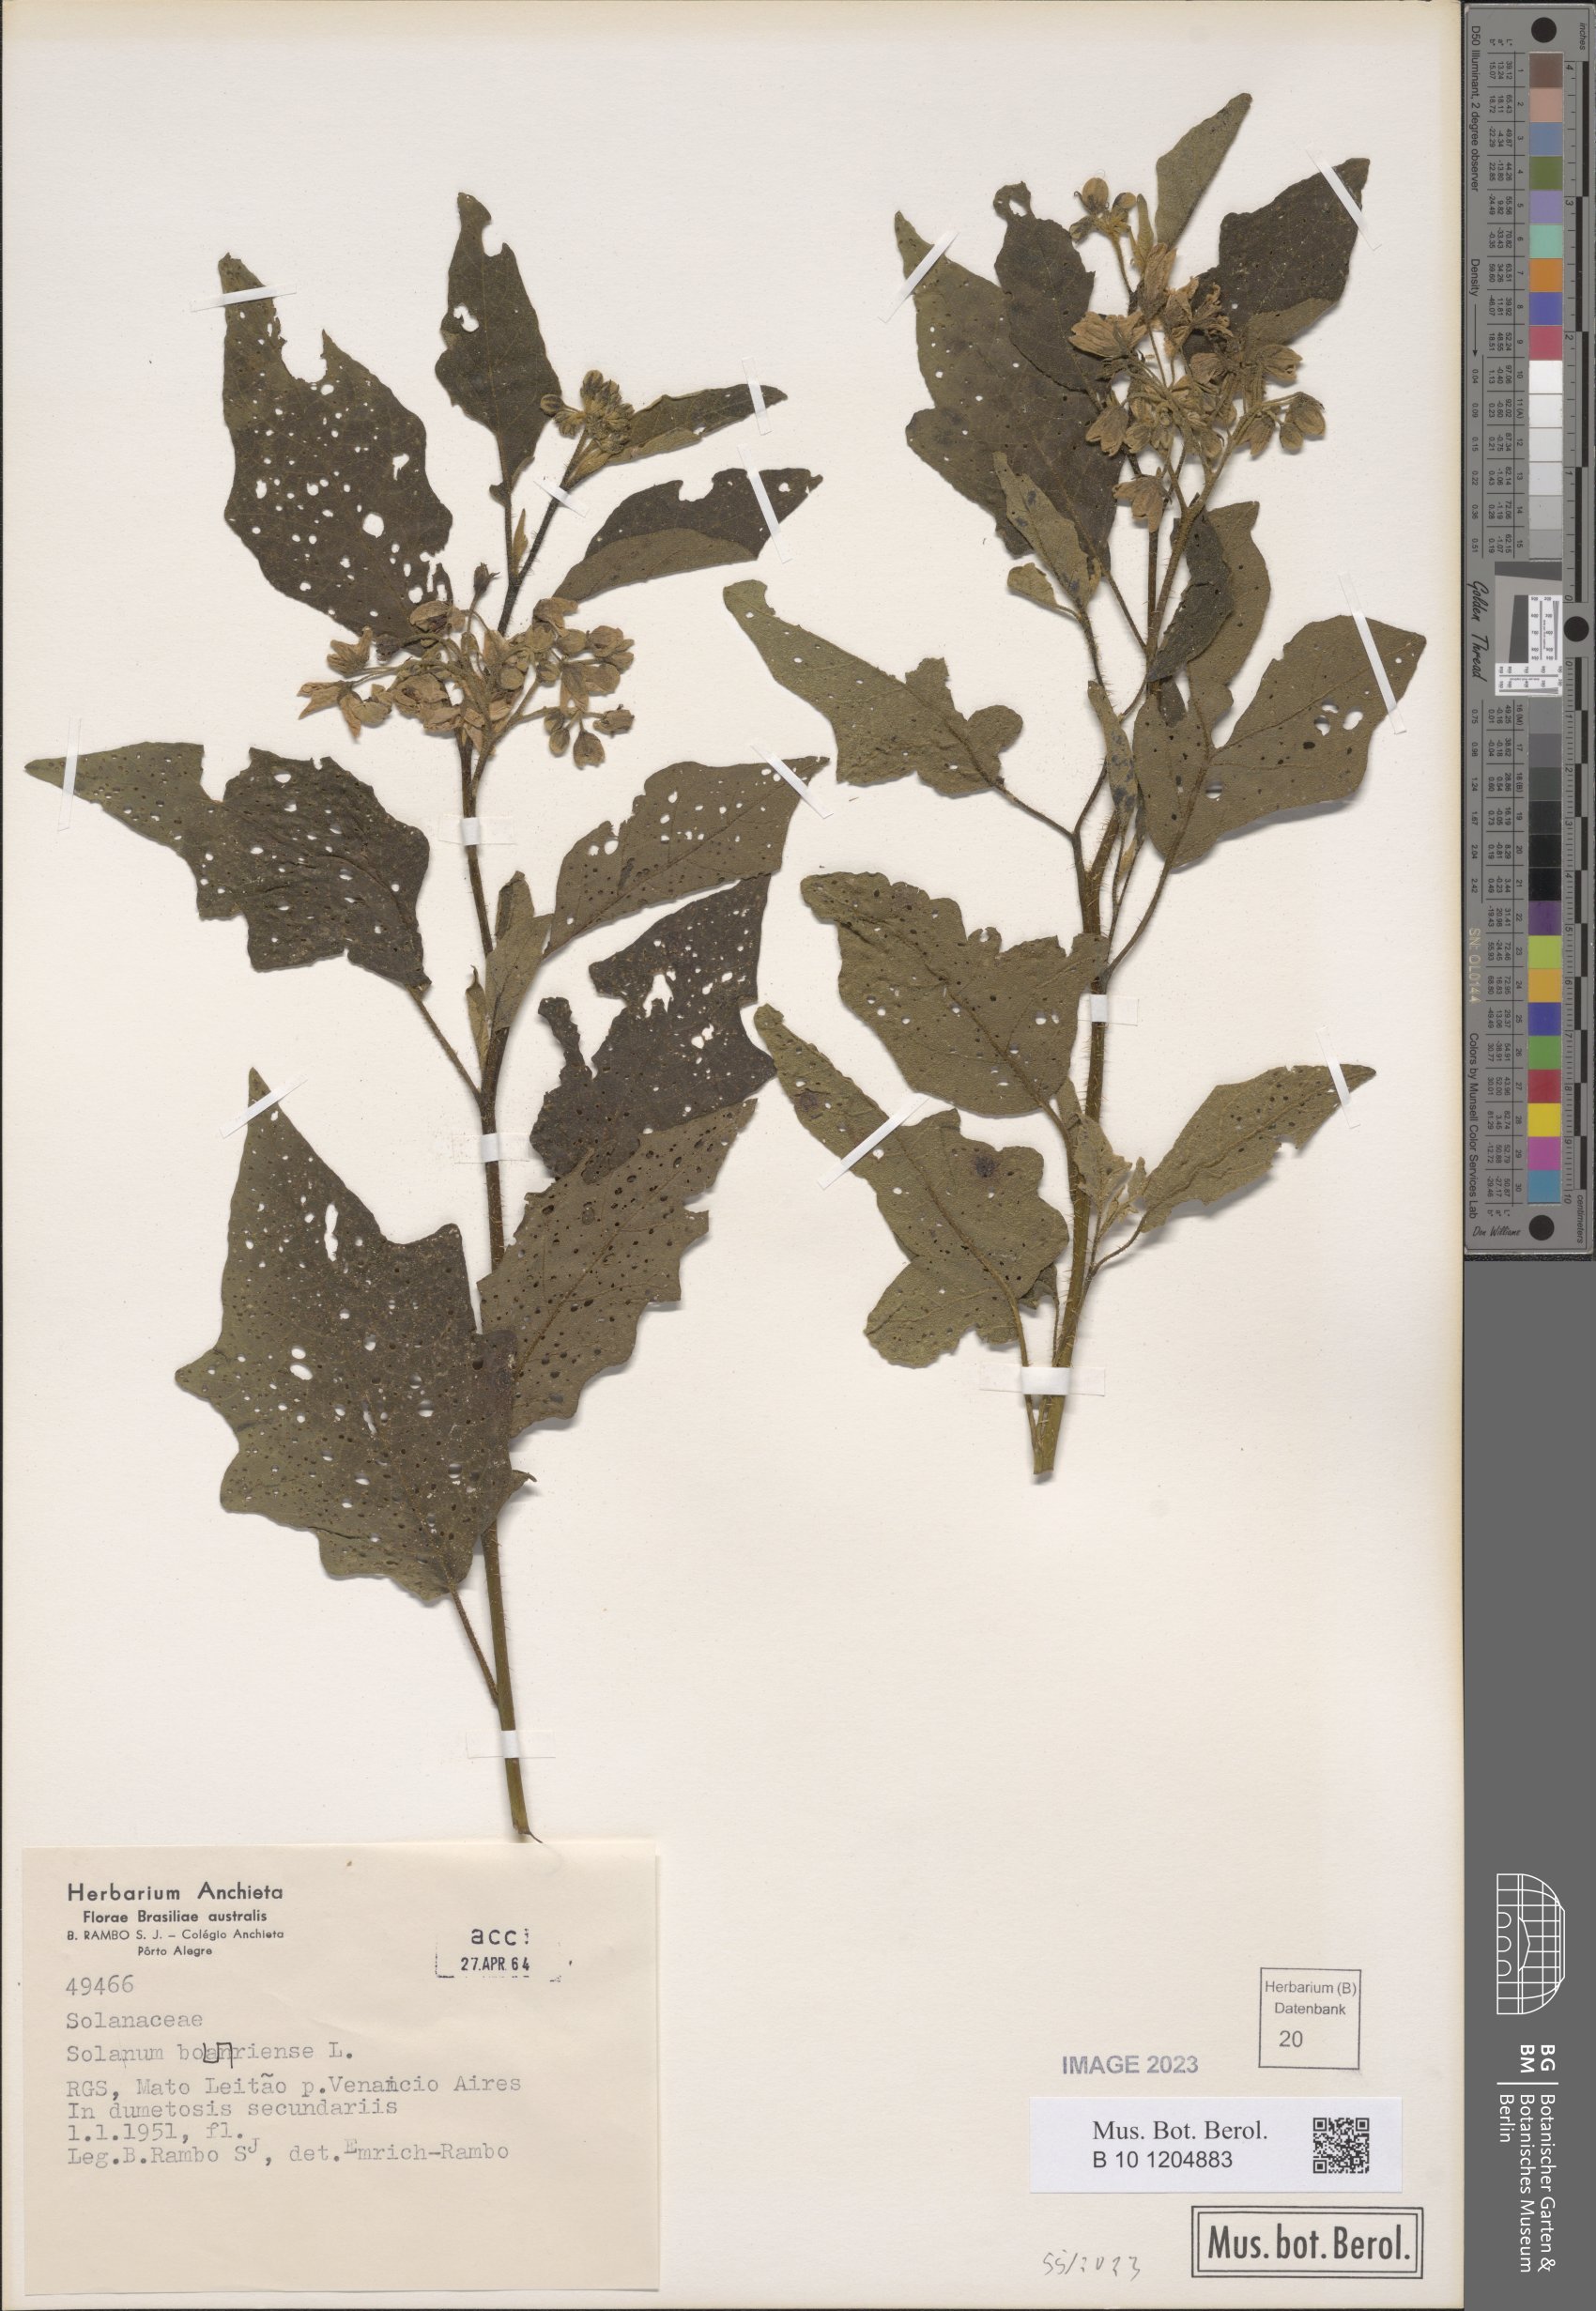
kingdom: Plantae
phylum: Tracheophyta
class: Magnoliopsida
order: Solanales
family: Solanaceae
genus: Solanum
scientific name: Solanum bonariense
